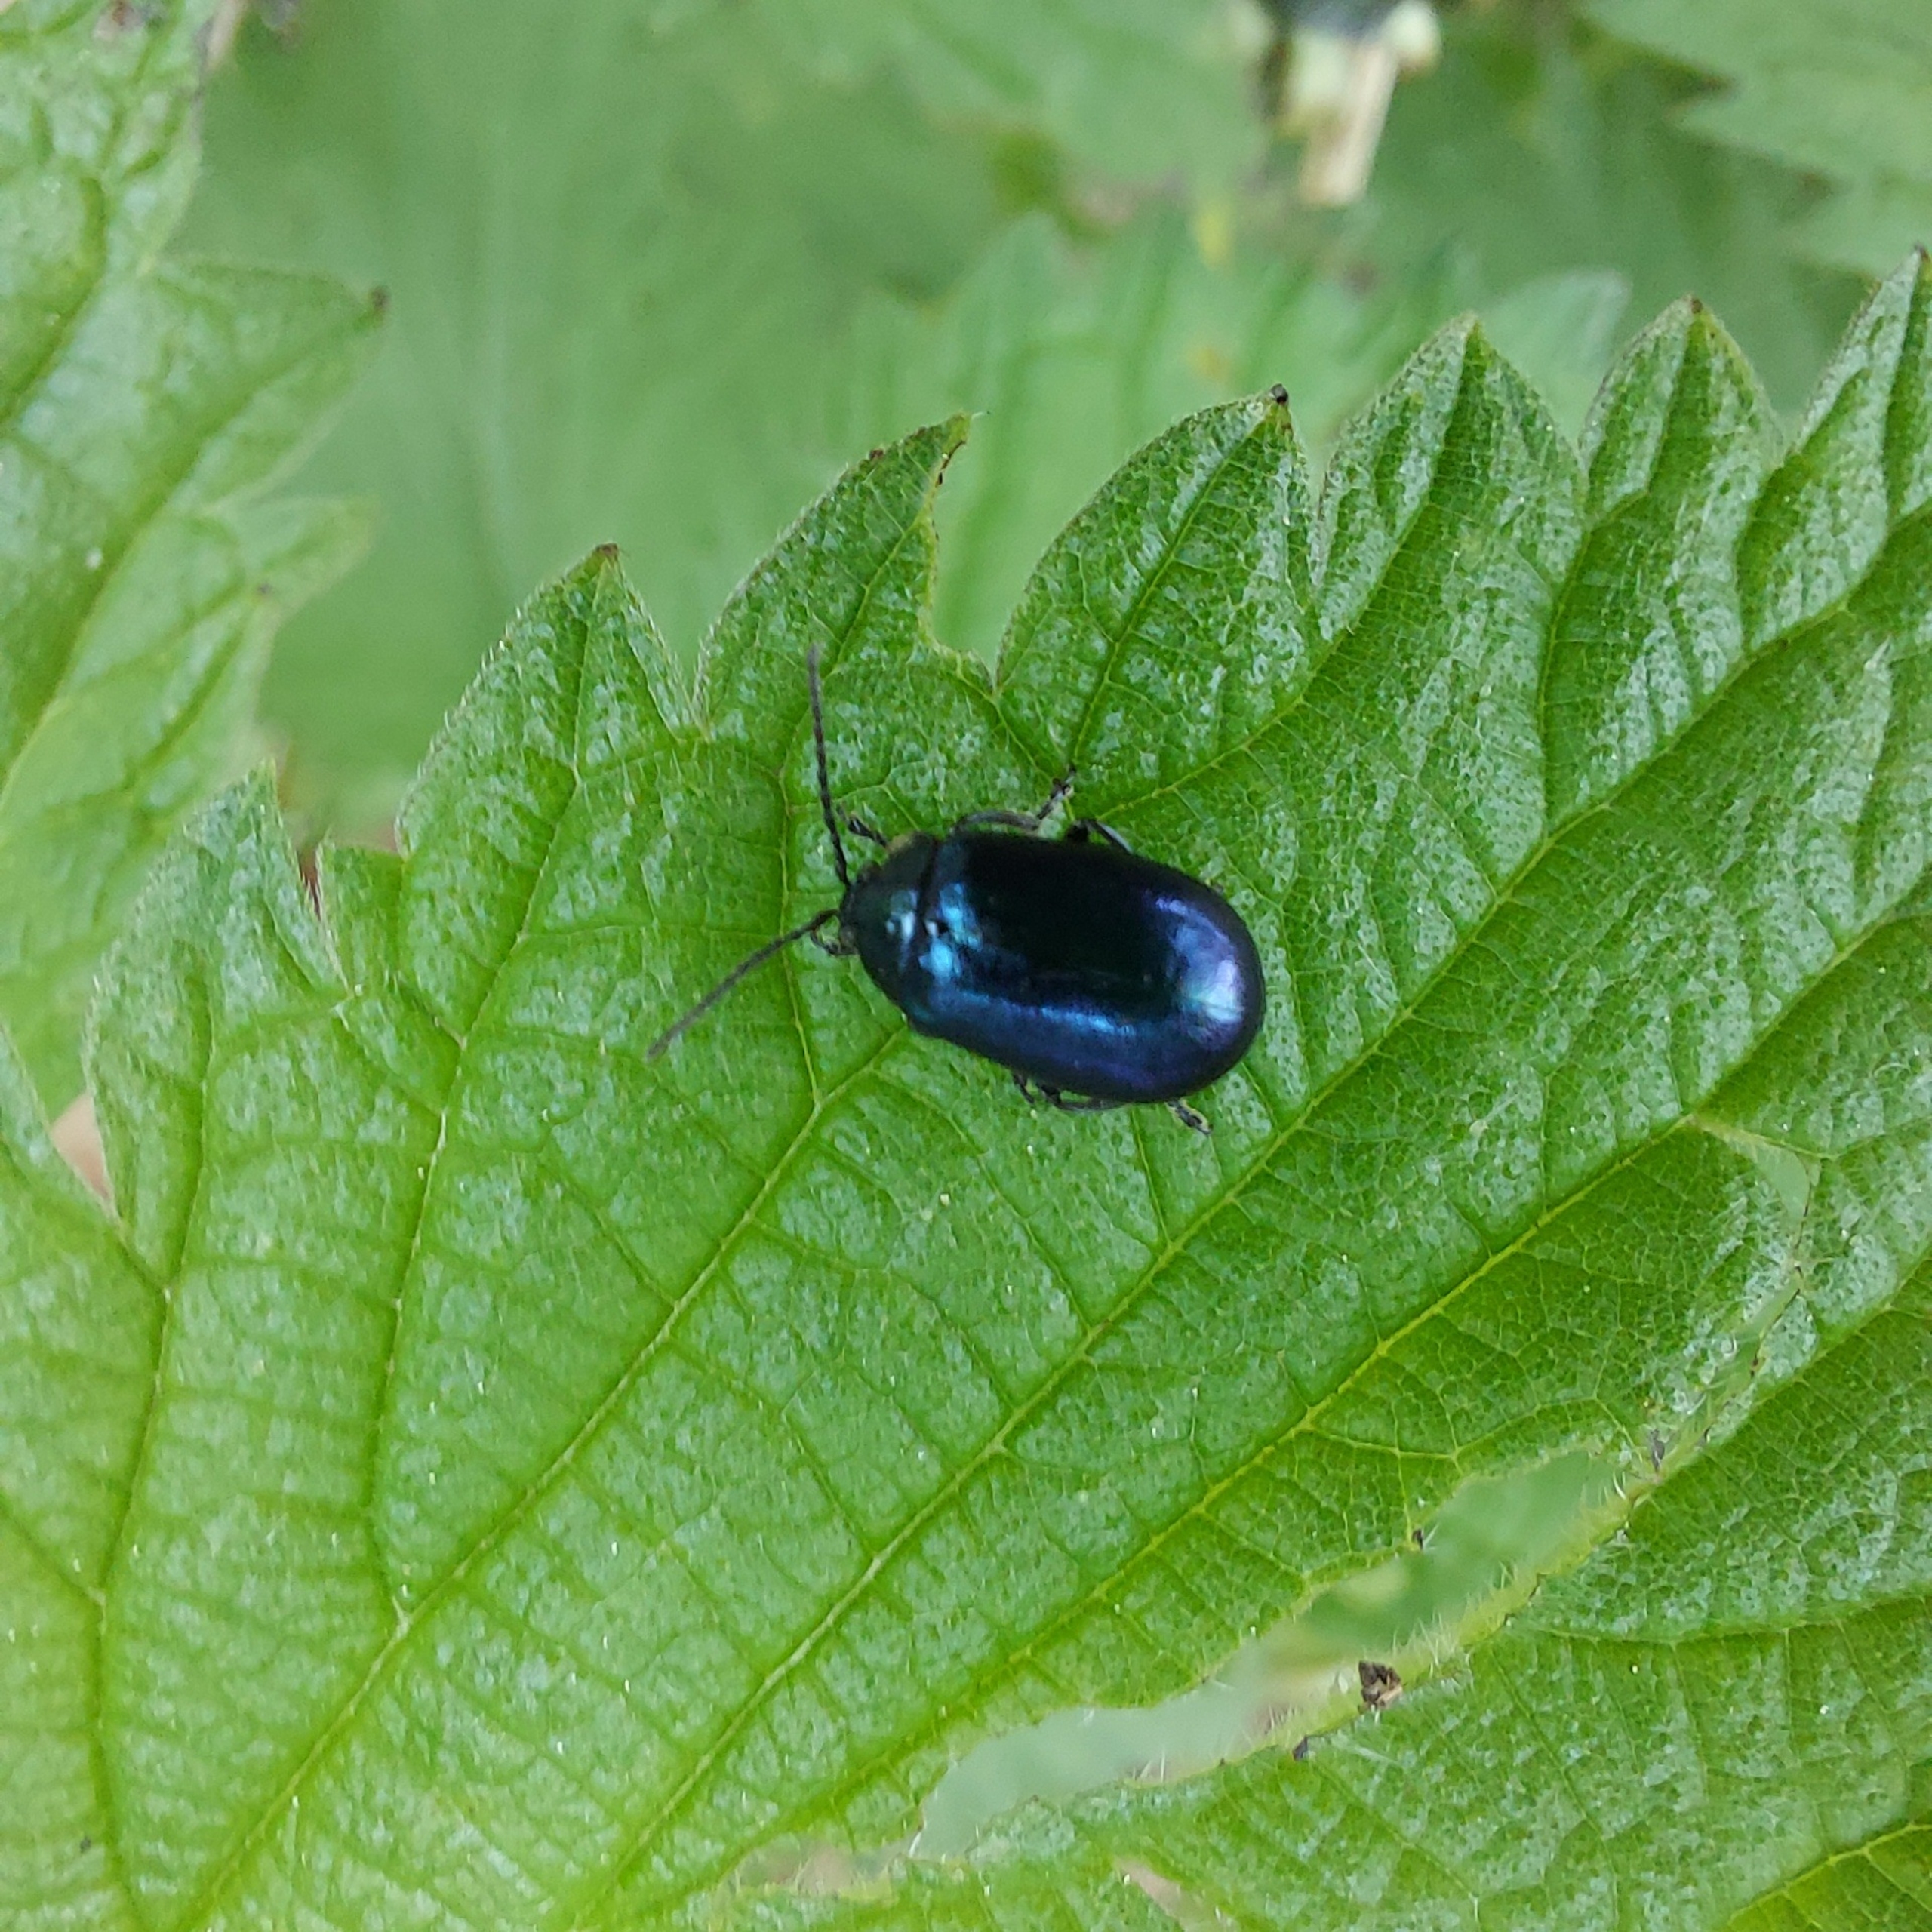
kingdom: Animalia
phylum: Arthropoda
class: Insecta
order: Coleoptera
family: Chrysomelidae
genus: Agelastica
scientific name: Agelastica alni
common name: Ellebladbille
